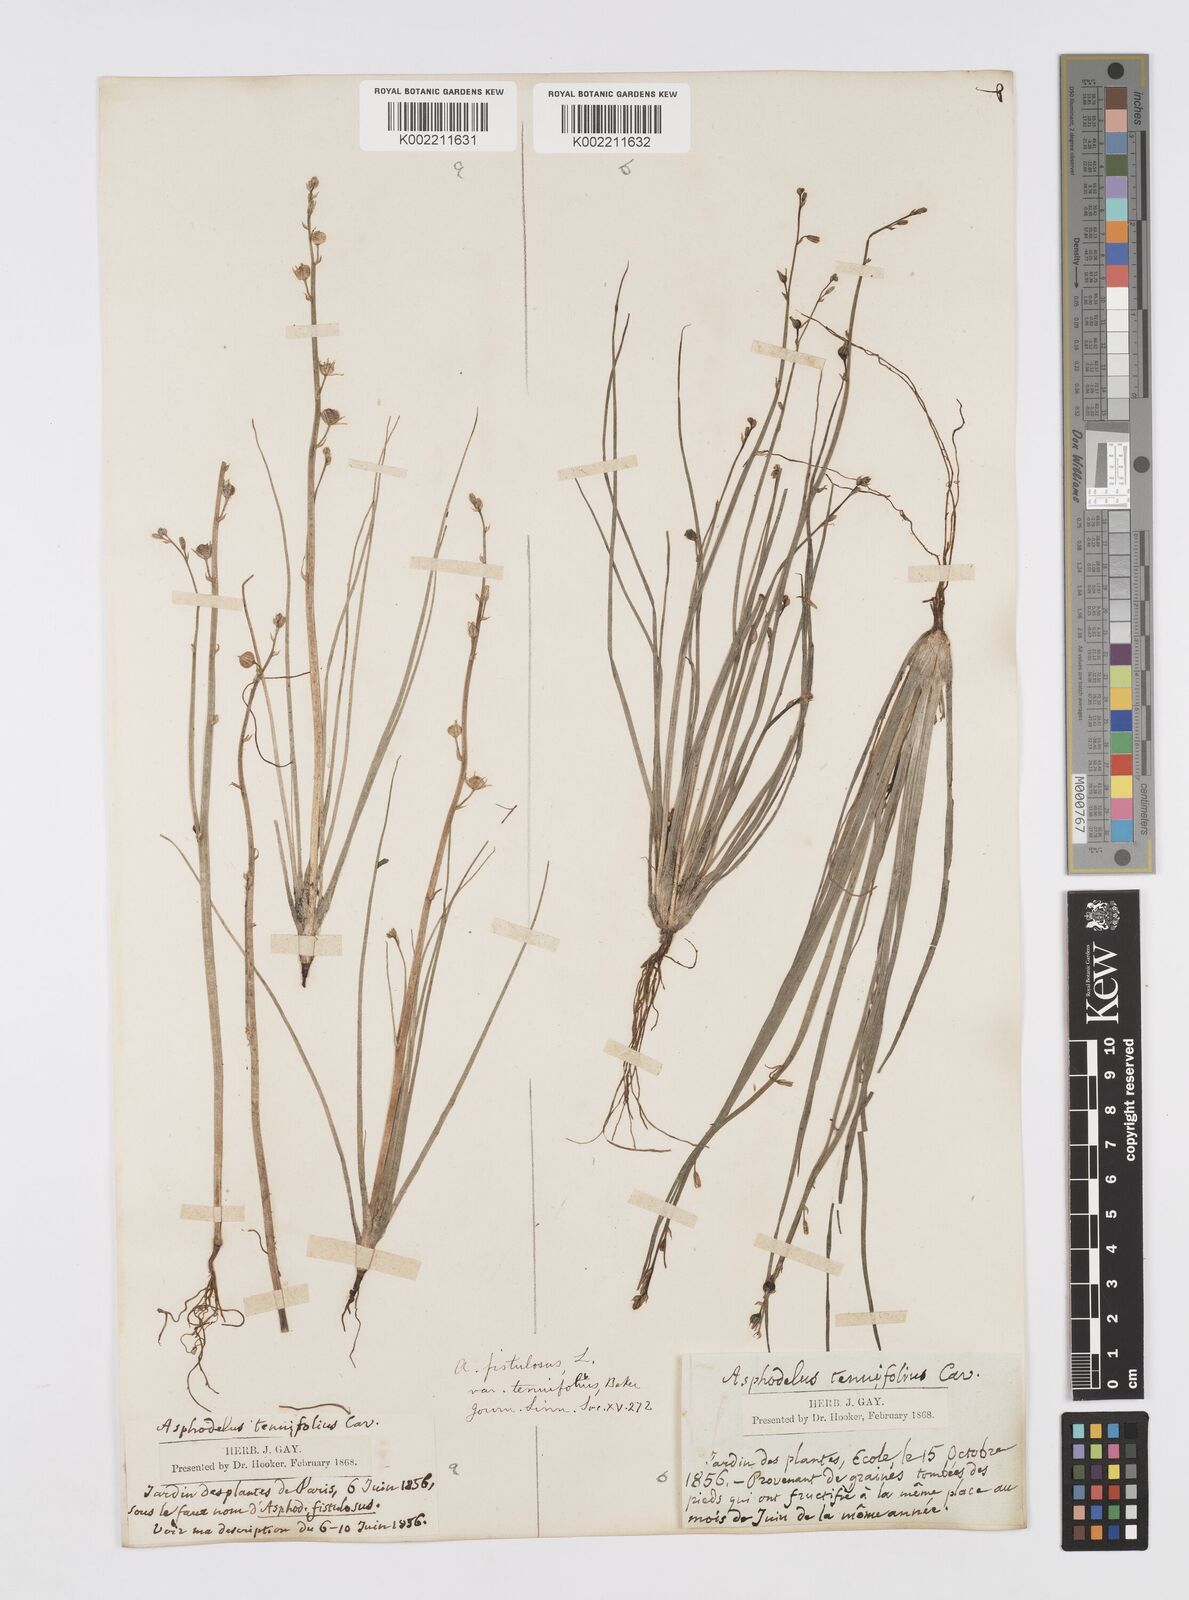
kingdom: Plantae
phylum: Tracheophyta
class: Liliopsida
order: Asparagales
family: Asphodelaceae
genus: Asphodelus
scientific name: Asphodelus tenuifolius
